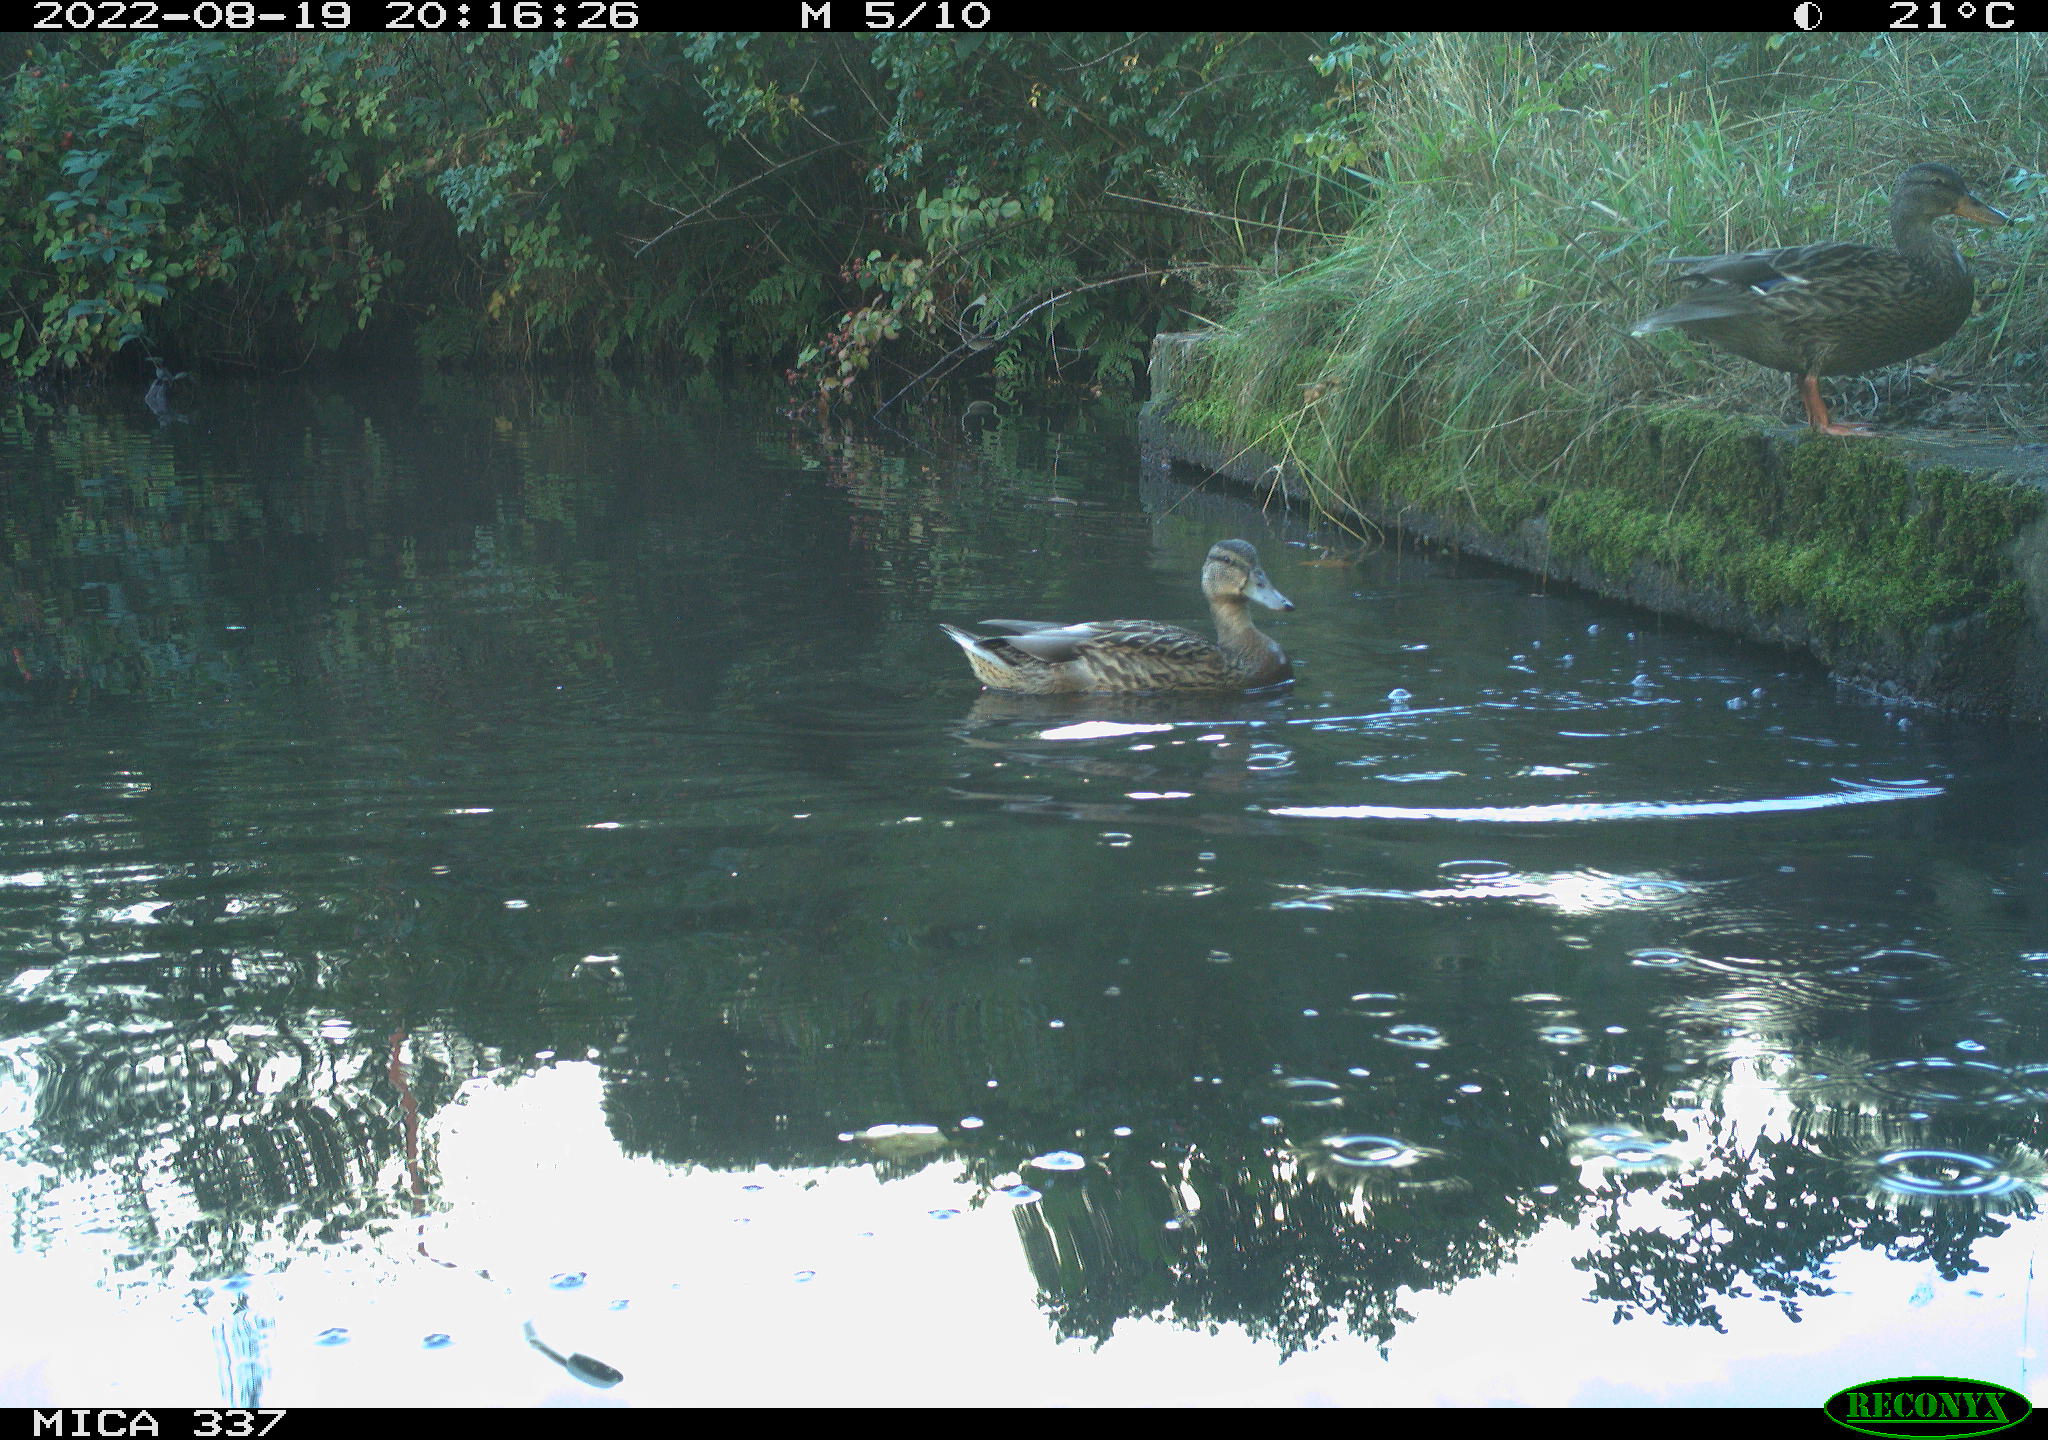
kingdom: Animalia
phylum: Chordata
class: Aves
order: Anseriformes
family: Anatidae
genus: Anas
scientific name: Anas platyrhynchos
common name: Mallard
